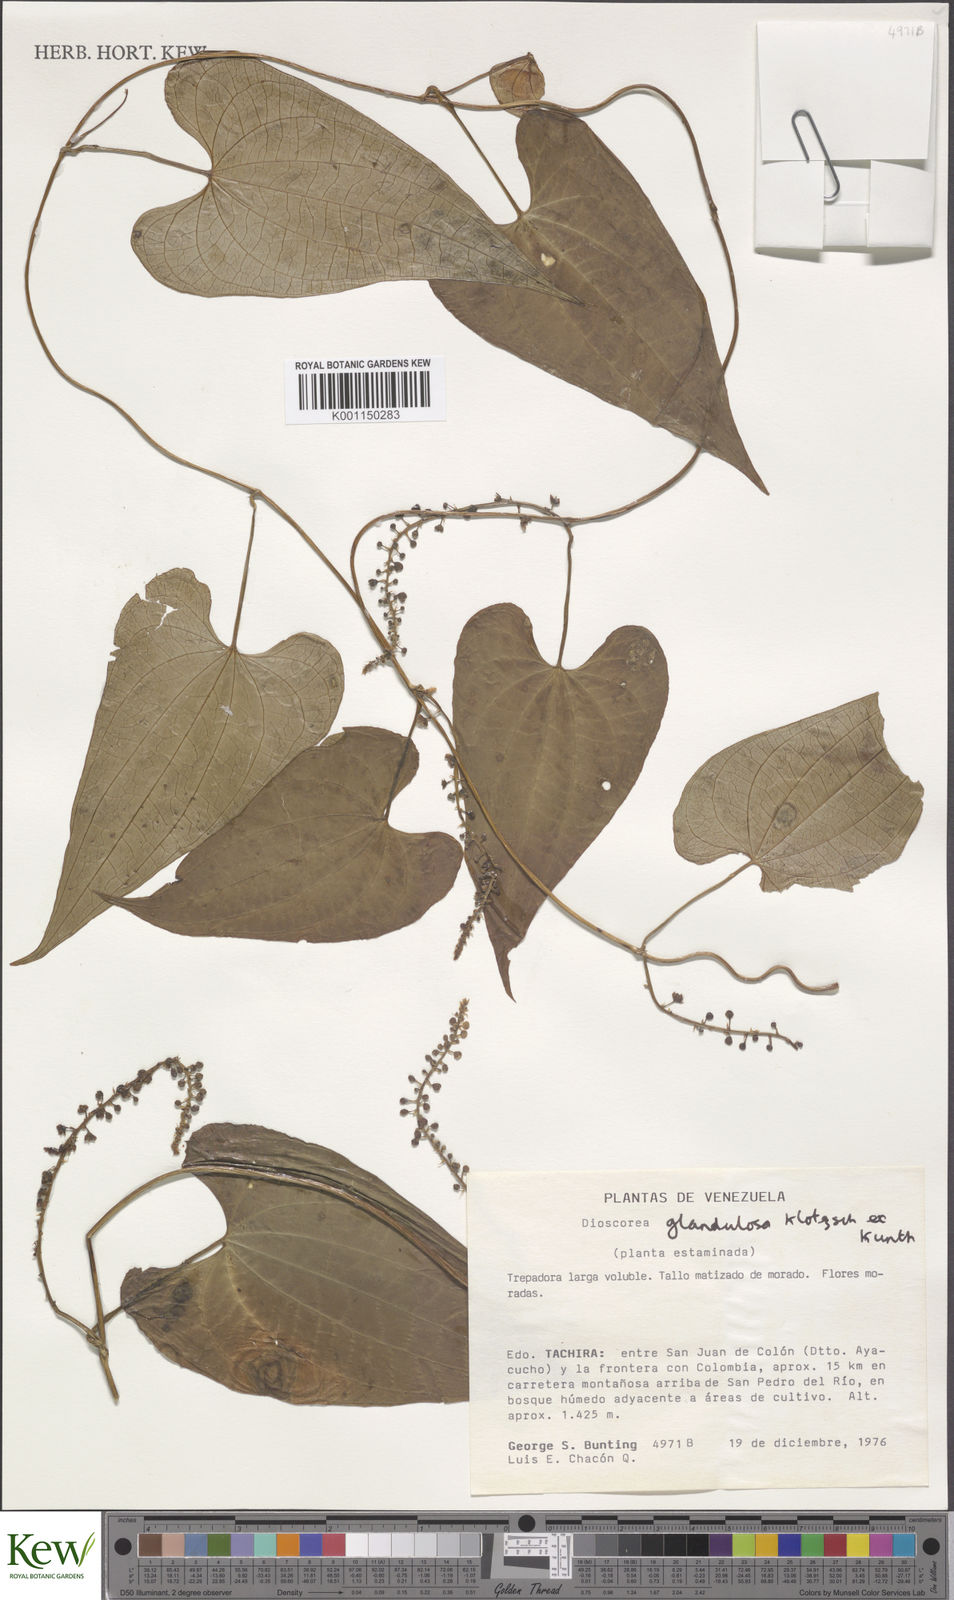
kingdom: Plantae
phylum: Tracheophyta
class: Liliopsida
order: Dioscoreales
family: Dioscoreaceae
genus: Dioscorea
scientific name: Dioscorea glandulosa
